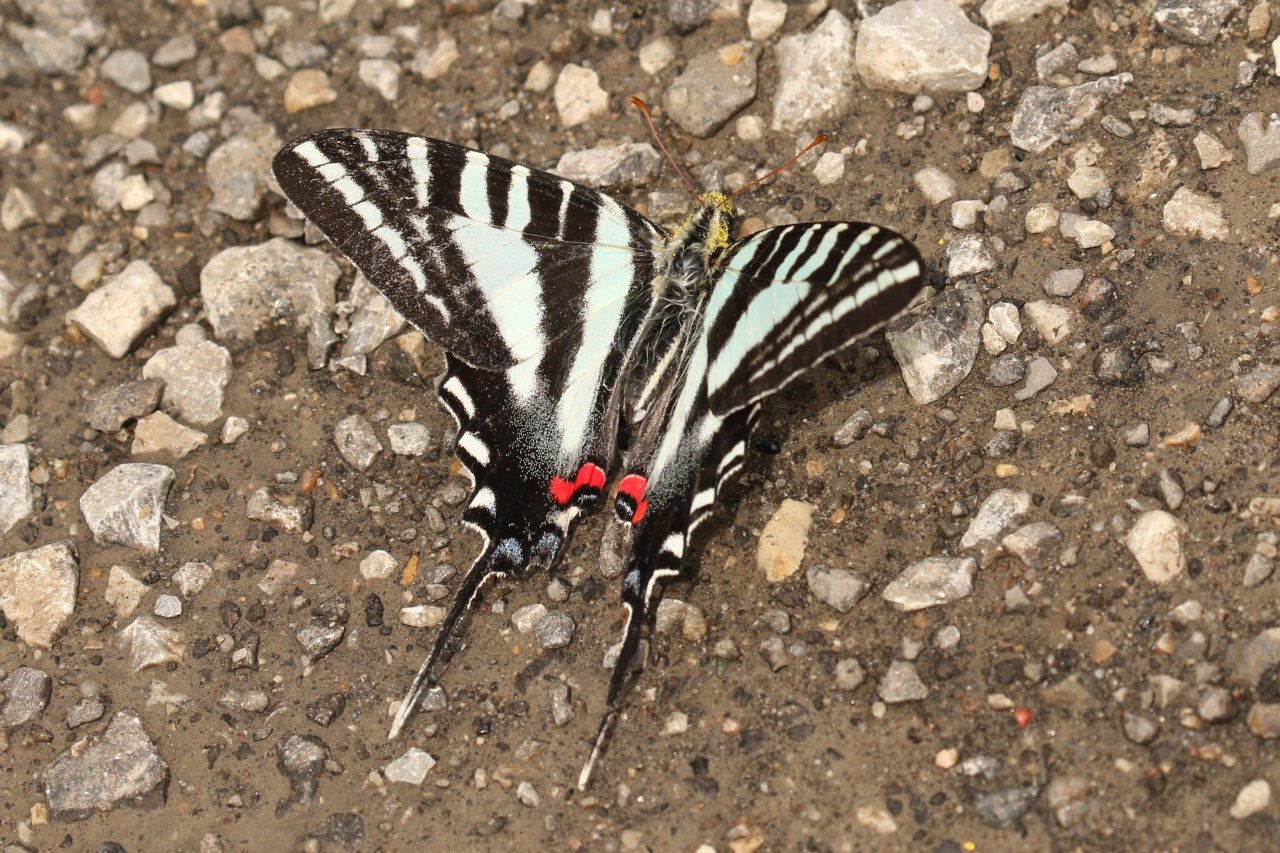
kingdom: Animalia
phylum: Arthropoda
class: Insecta
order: Lepidoptera
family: Papilionidae
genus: Protographium
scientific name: Protographium marcellus
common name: Zebra Swallowtail
